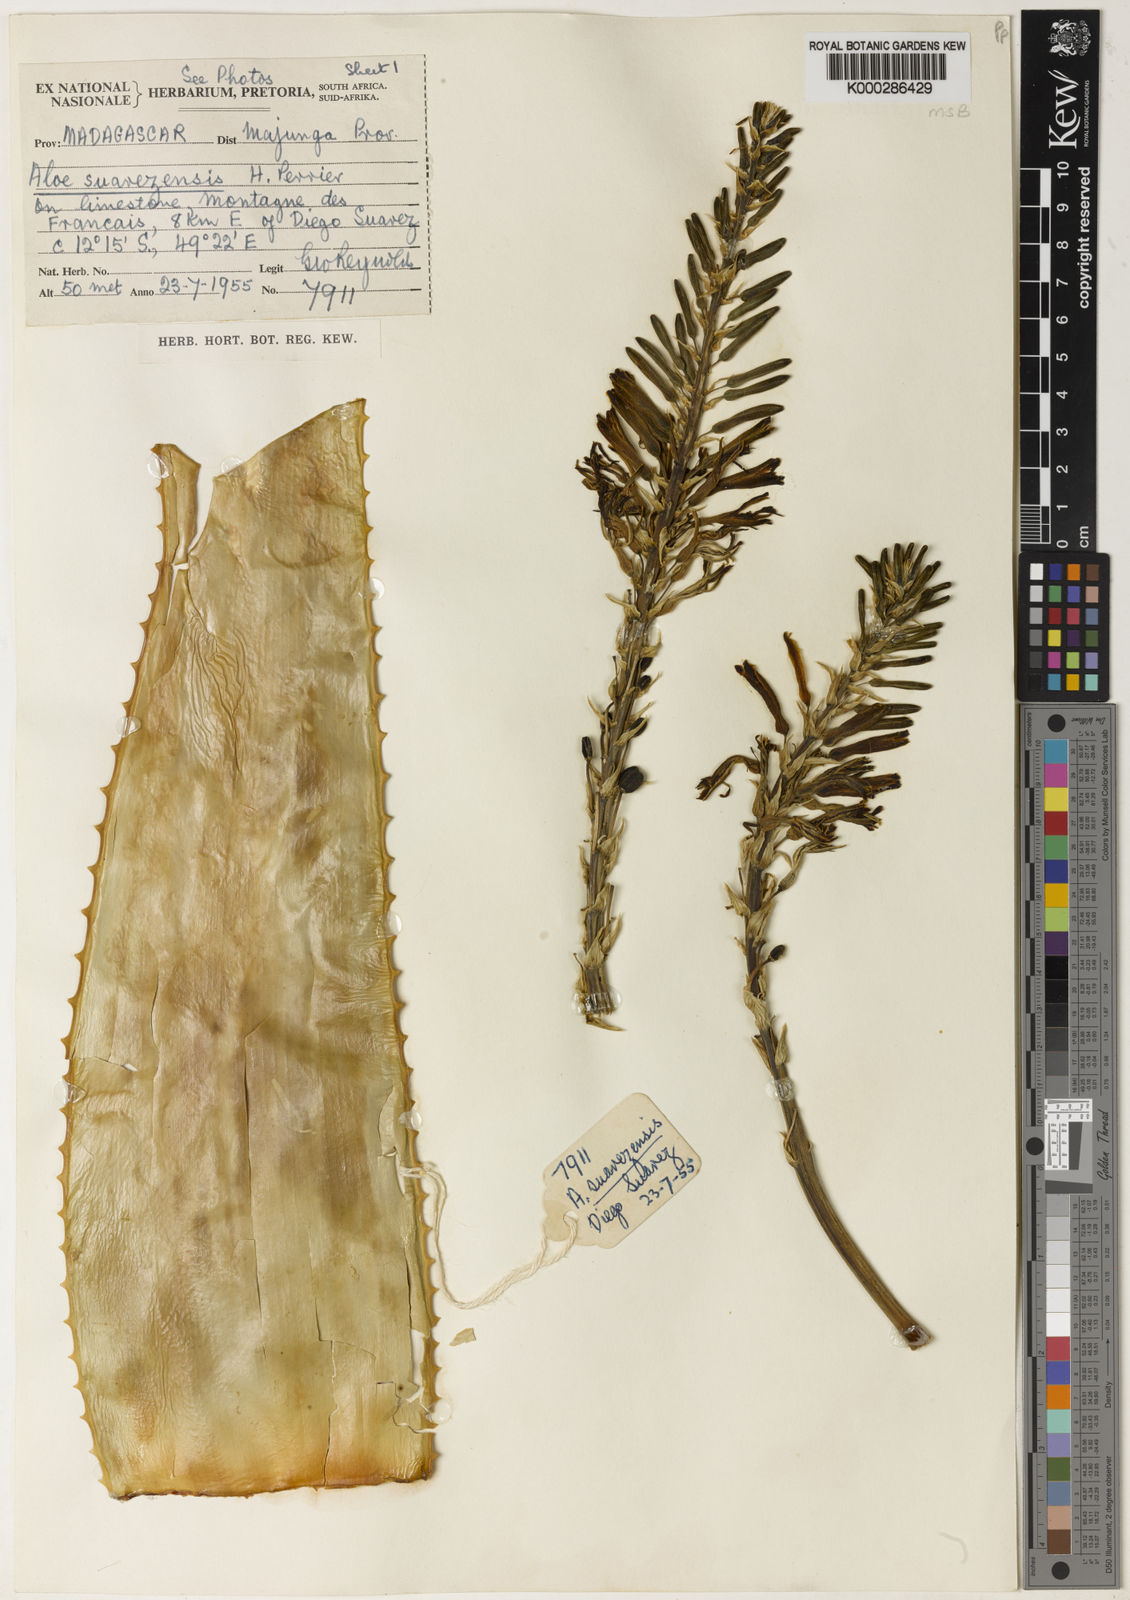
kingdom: Plantae
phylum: Tracheophyta
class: Liliopsida
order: Asparagales
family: Asphodelaceae
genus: Aloe
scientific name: Aloe
